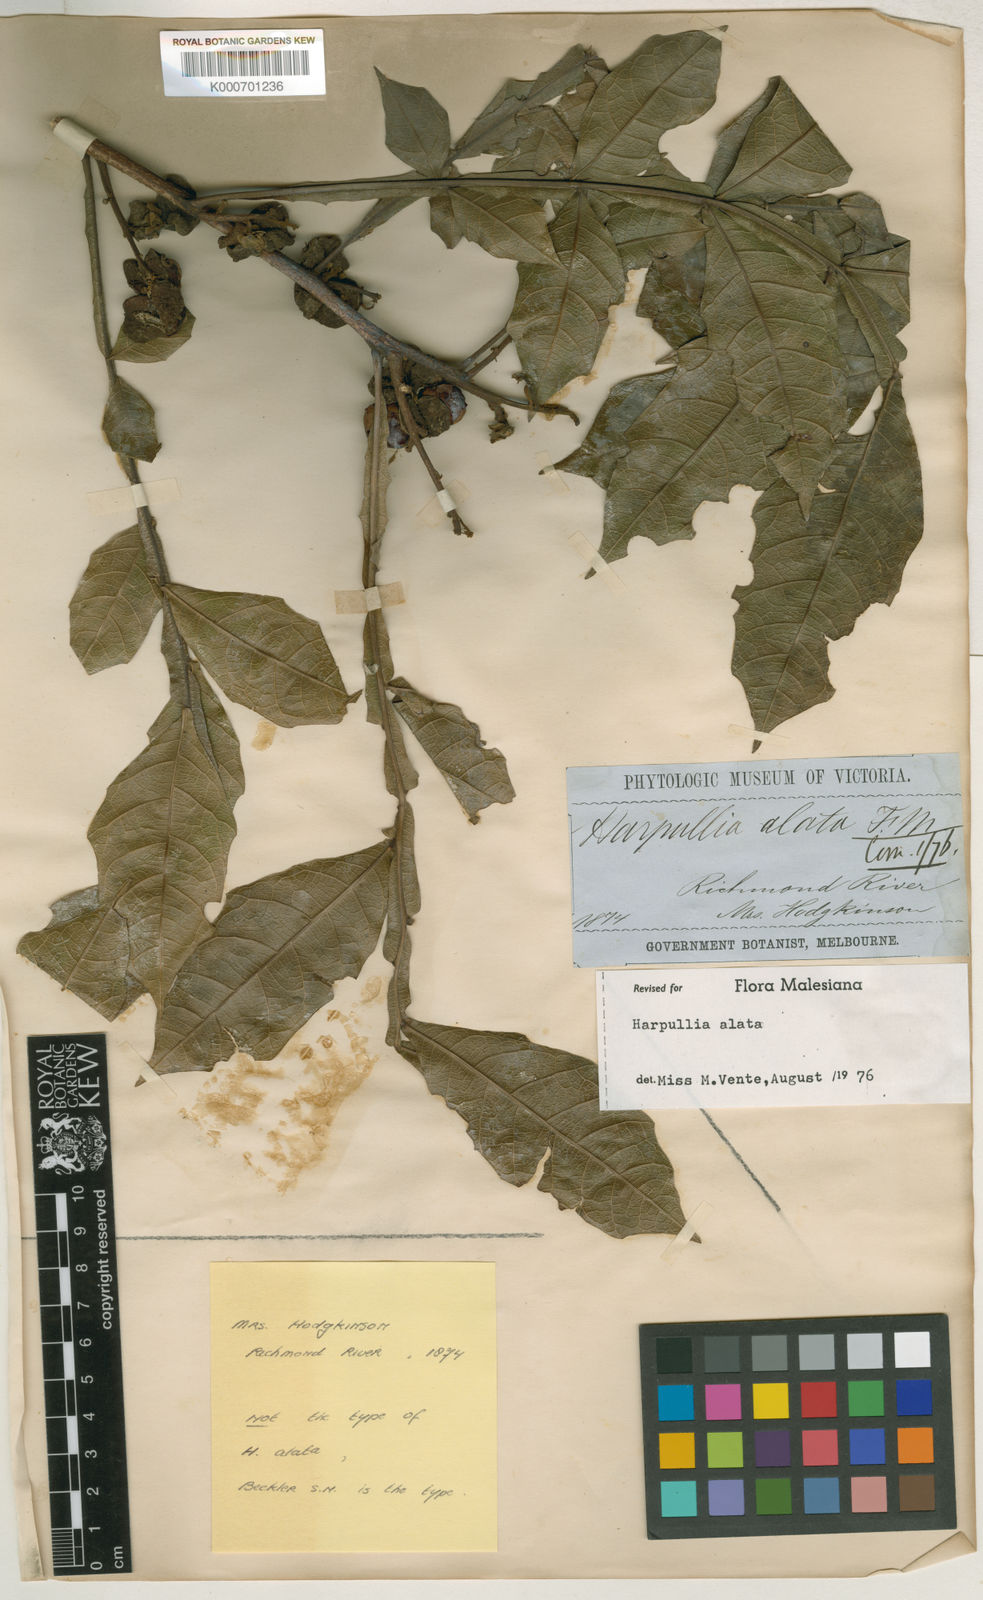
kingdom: Plantae
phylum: Tracheophyta
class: Magnoliopsida
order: Sapindales
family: Sapindaceae
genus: Harpullia
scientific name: Harpullia alata
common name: Wing-leaved tulip
